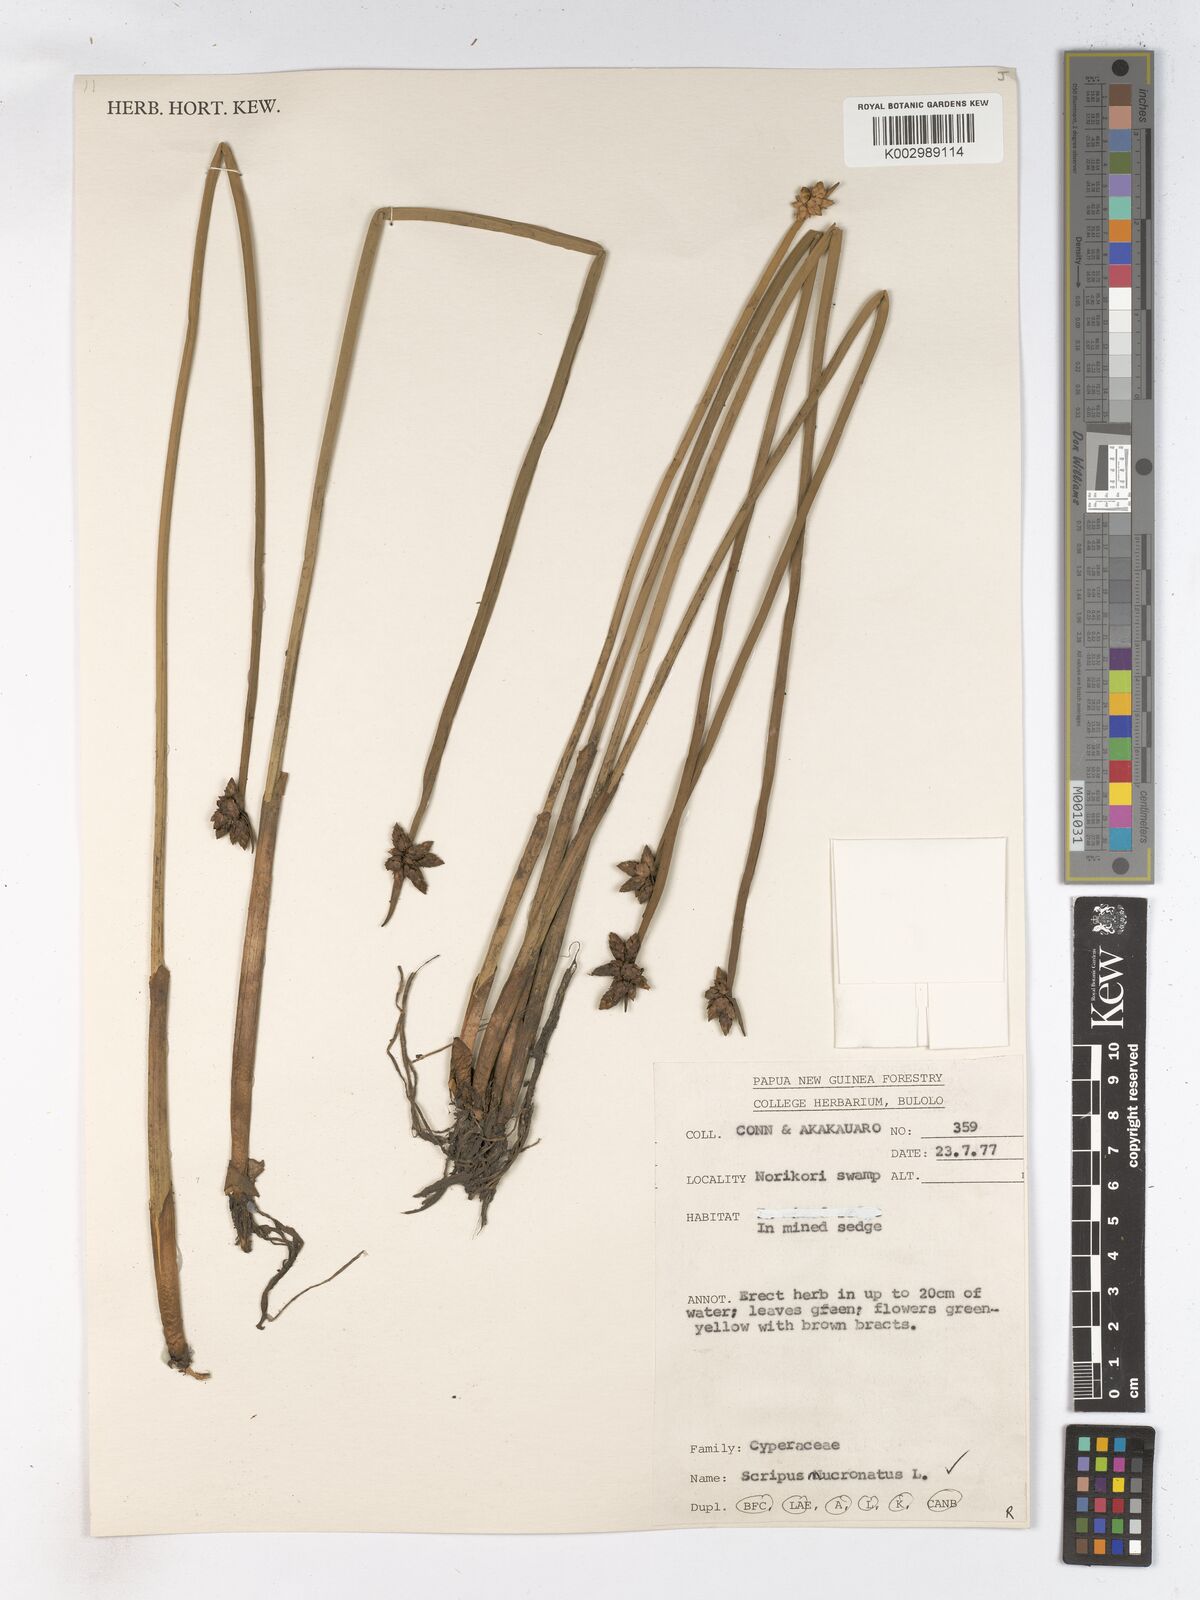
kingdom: Plantae
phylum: Tracheophyta
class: Liliopsida
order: Poales
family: Cyperaceae
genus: Schoenoplectiella
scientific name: Schoenoplectiella mucronata
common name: Bog bulrush
